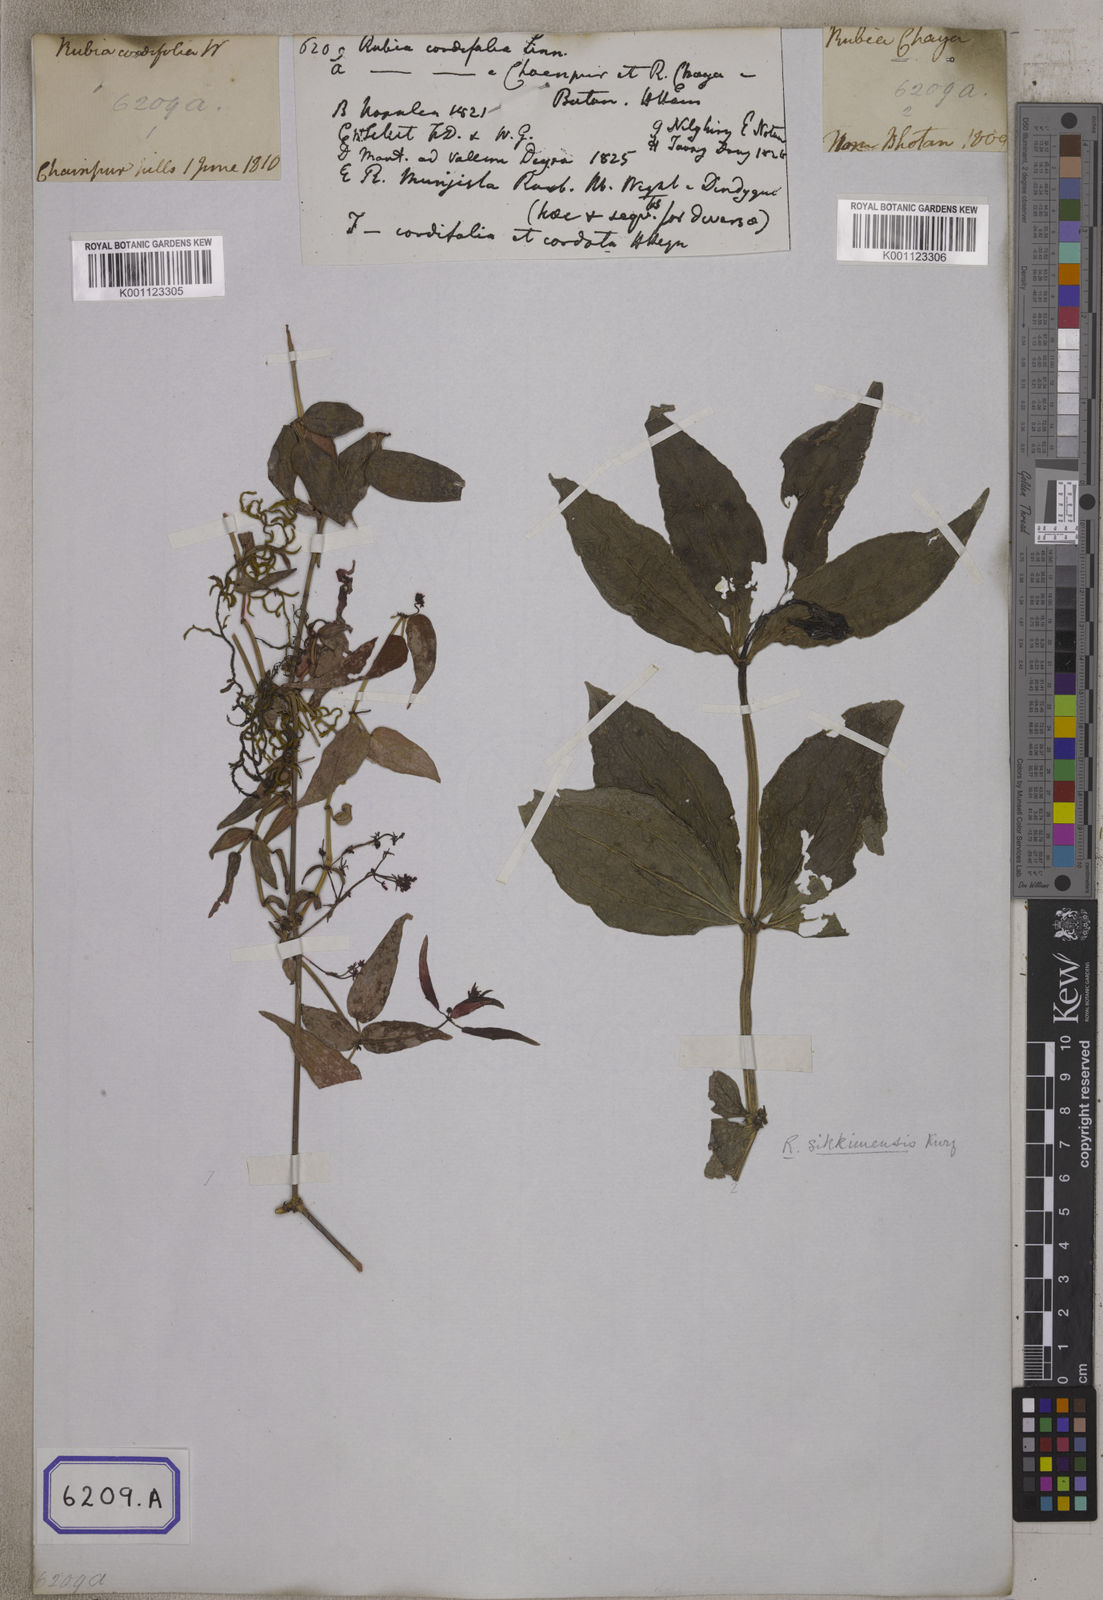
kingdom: Plantae
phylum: Tracheophyta
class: Magnoliopsida
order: Gentianales
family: Rubiaceae
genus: Rubia
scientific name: Rubia cordifolia
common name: Indian madder
